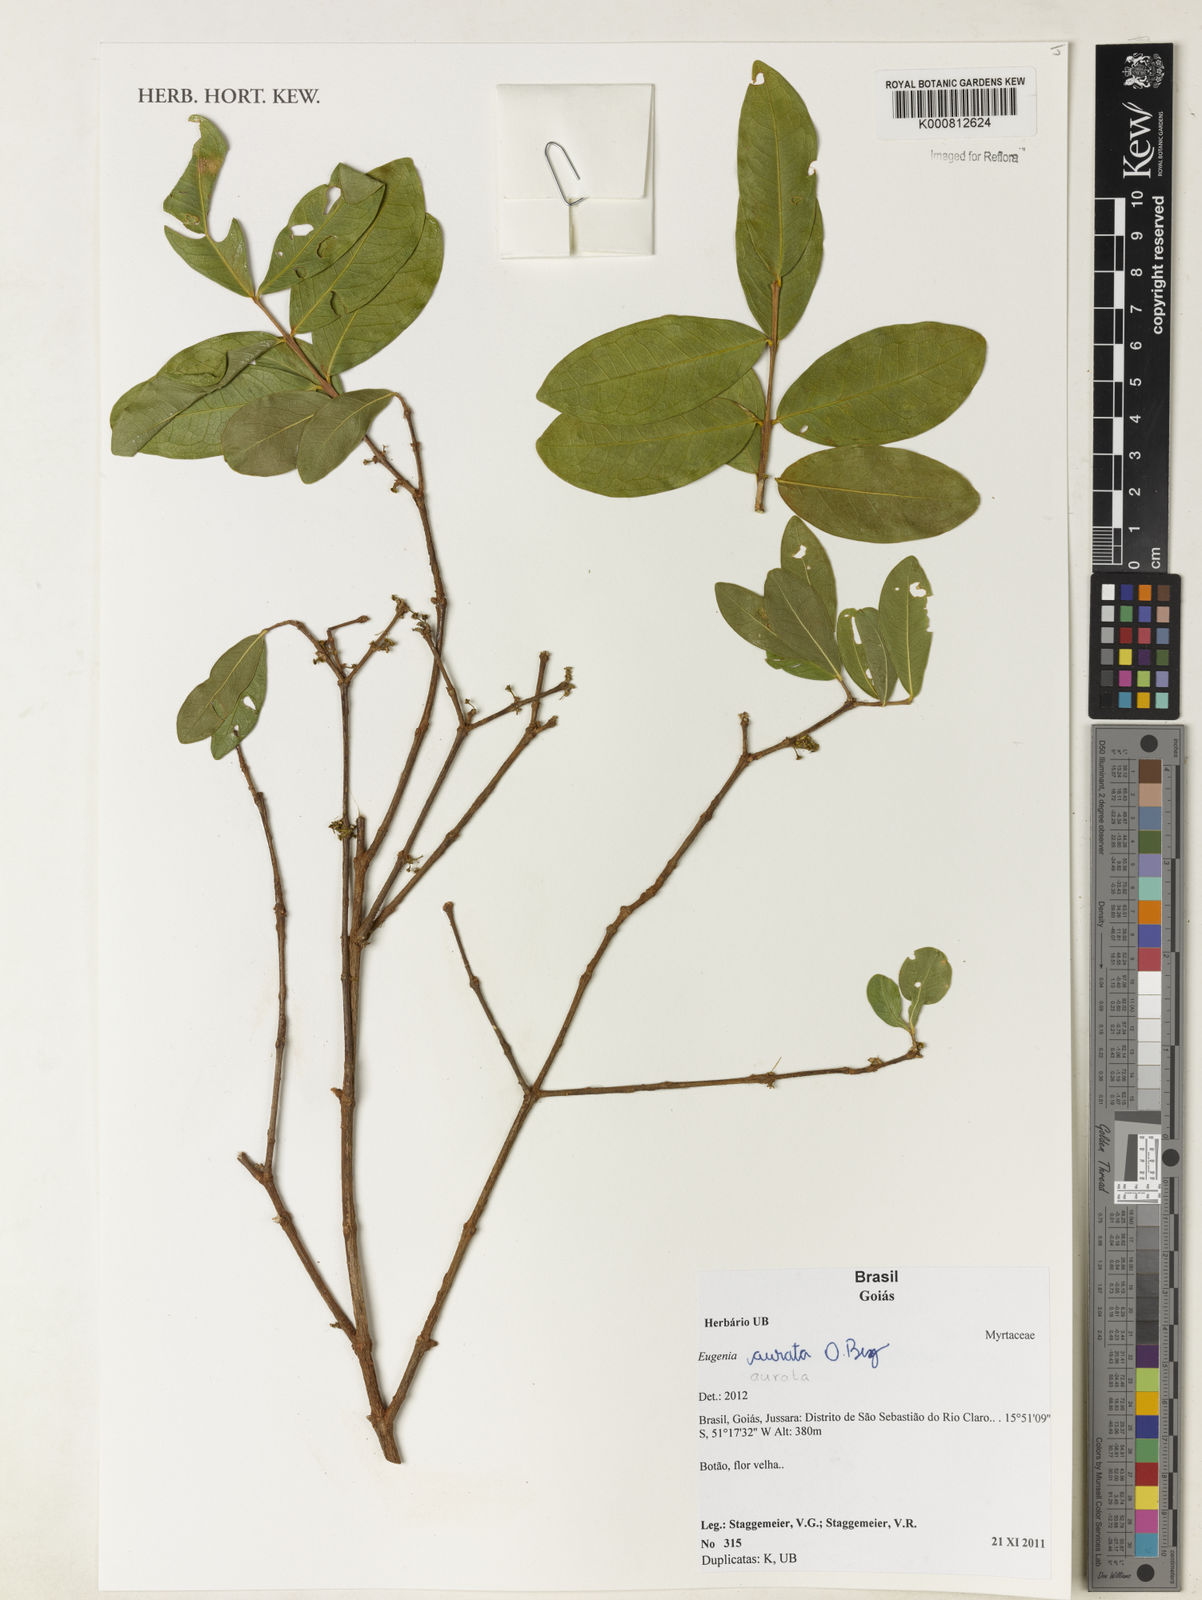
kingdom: Plantae
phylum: Tracheophyta
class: Magnoliopsida
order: Myrtales
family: Myrtaceae
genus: Eugenia
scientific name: Eugenia aurata
